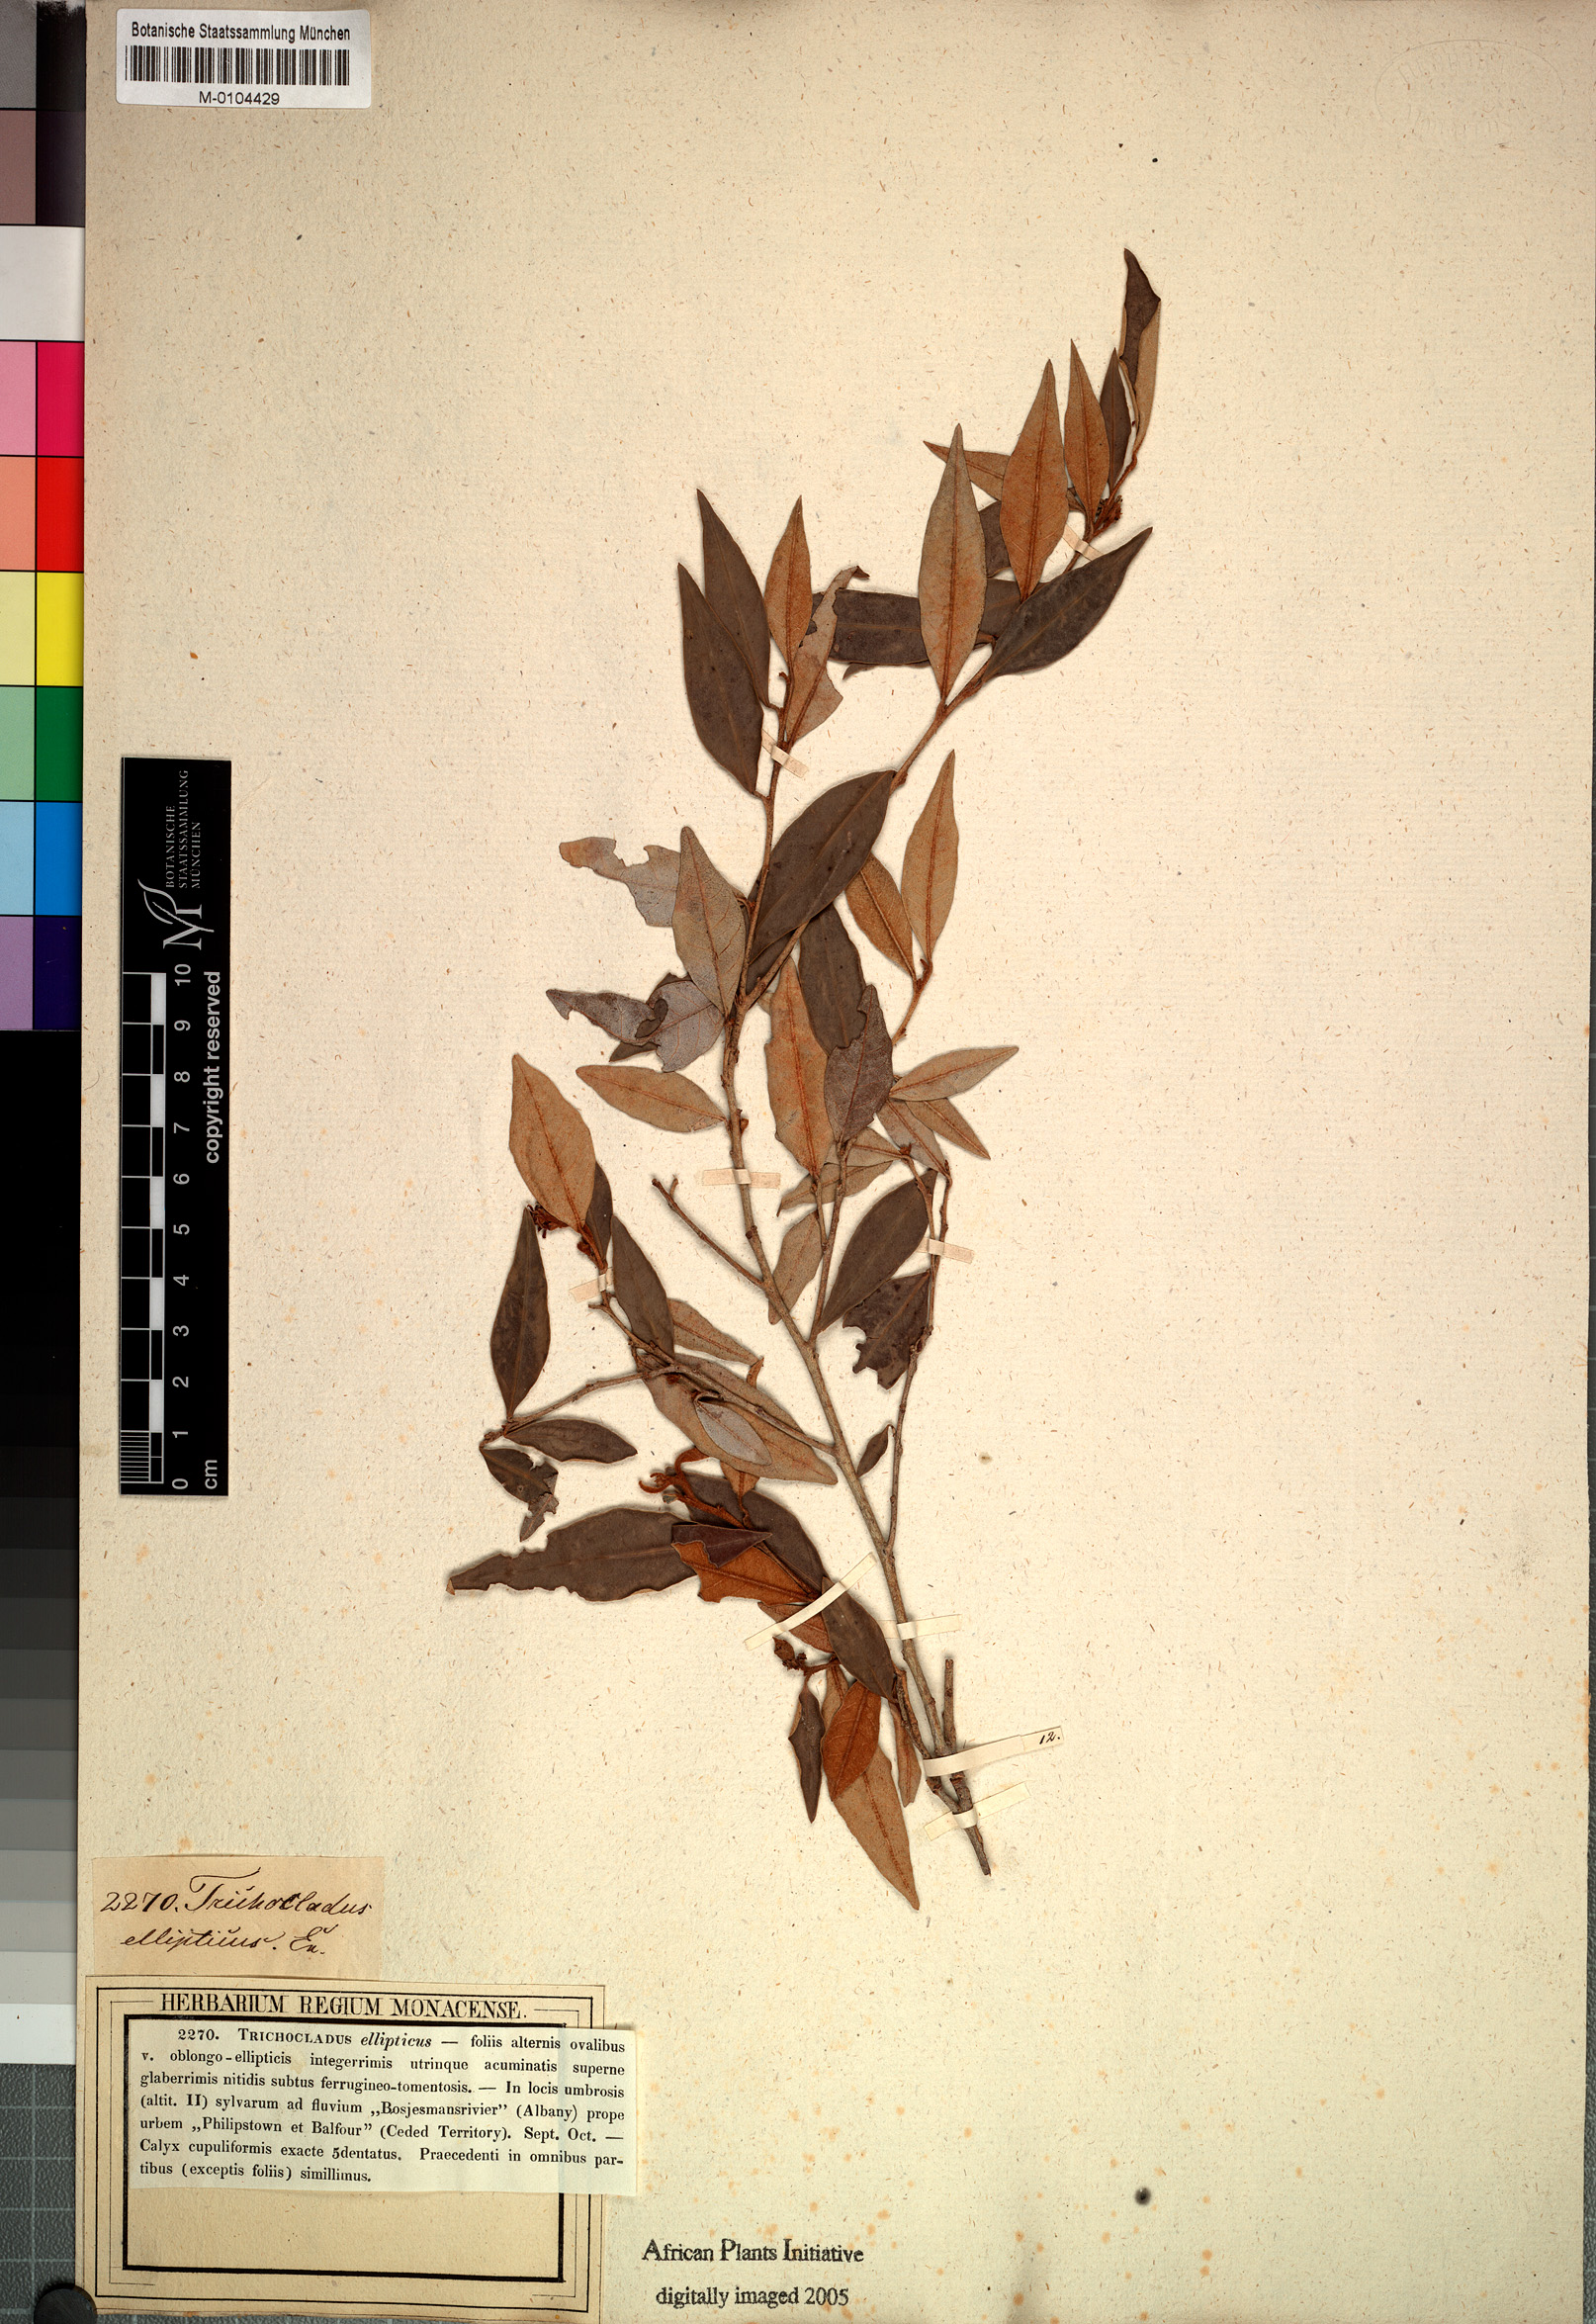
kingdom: Plantae
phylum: Tracheophyta
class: Magnoliopsida
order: Saxifragales
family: Hamamelidaceae
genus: Trichocladus
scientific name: Trichocladus ellipticus
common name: White witch-hazel
